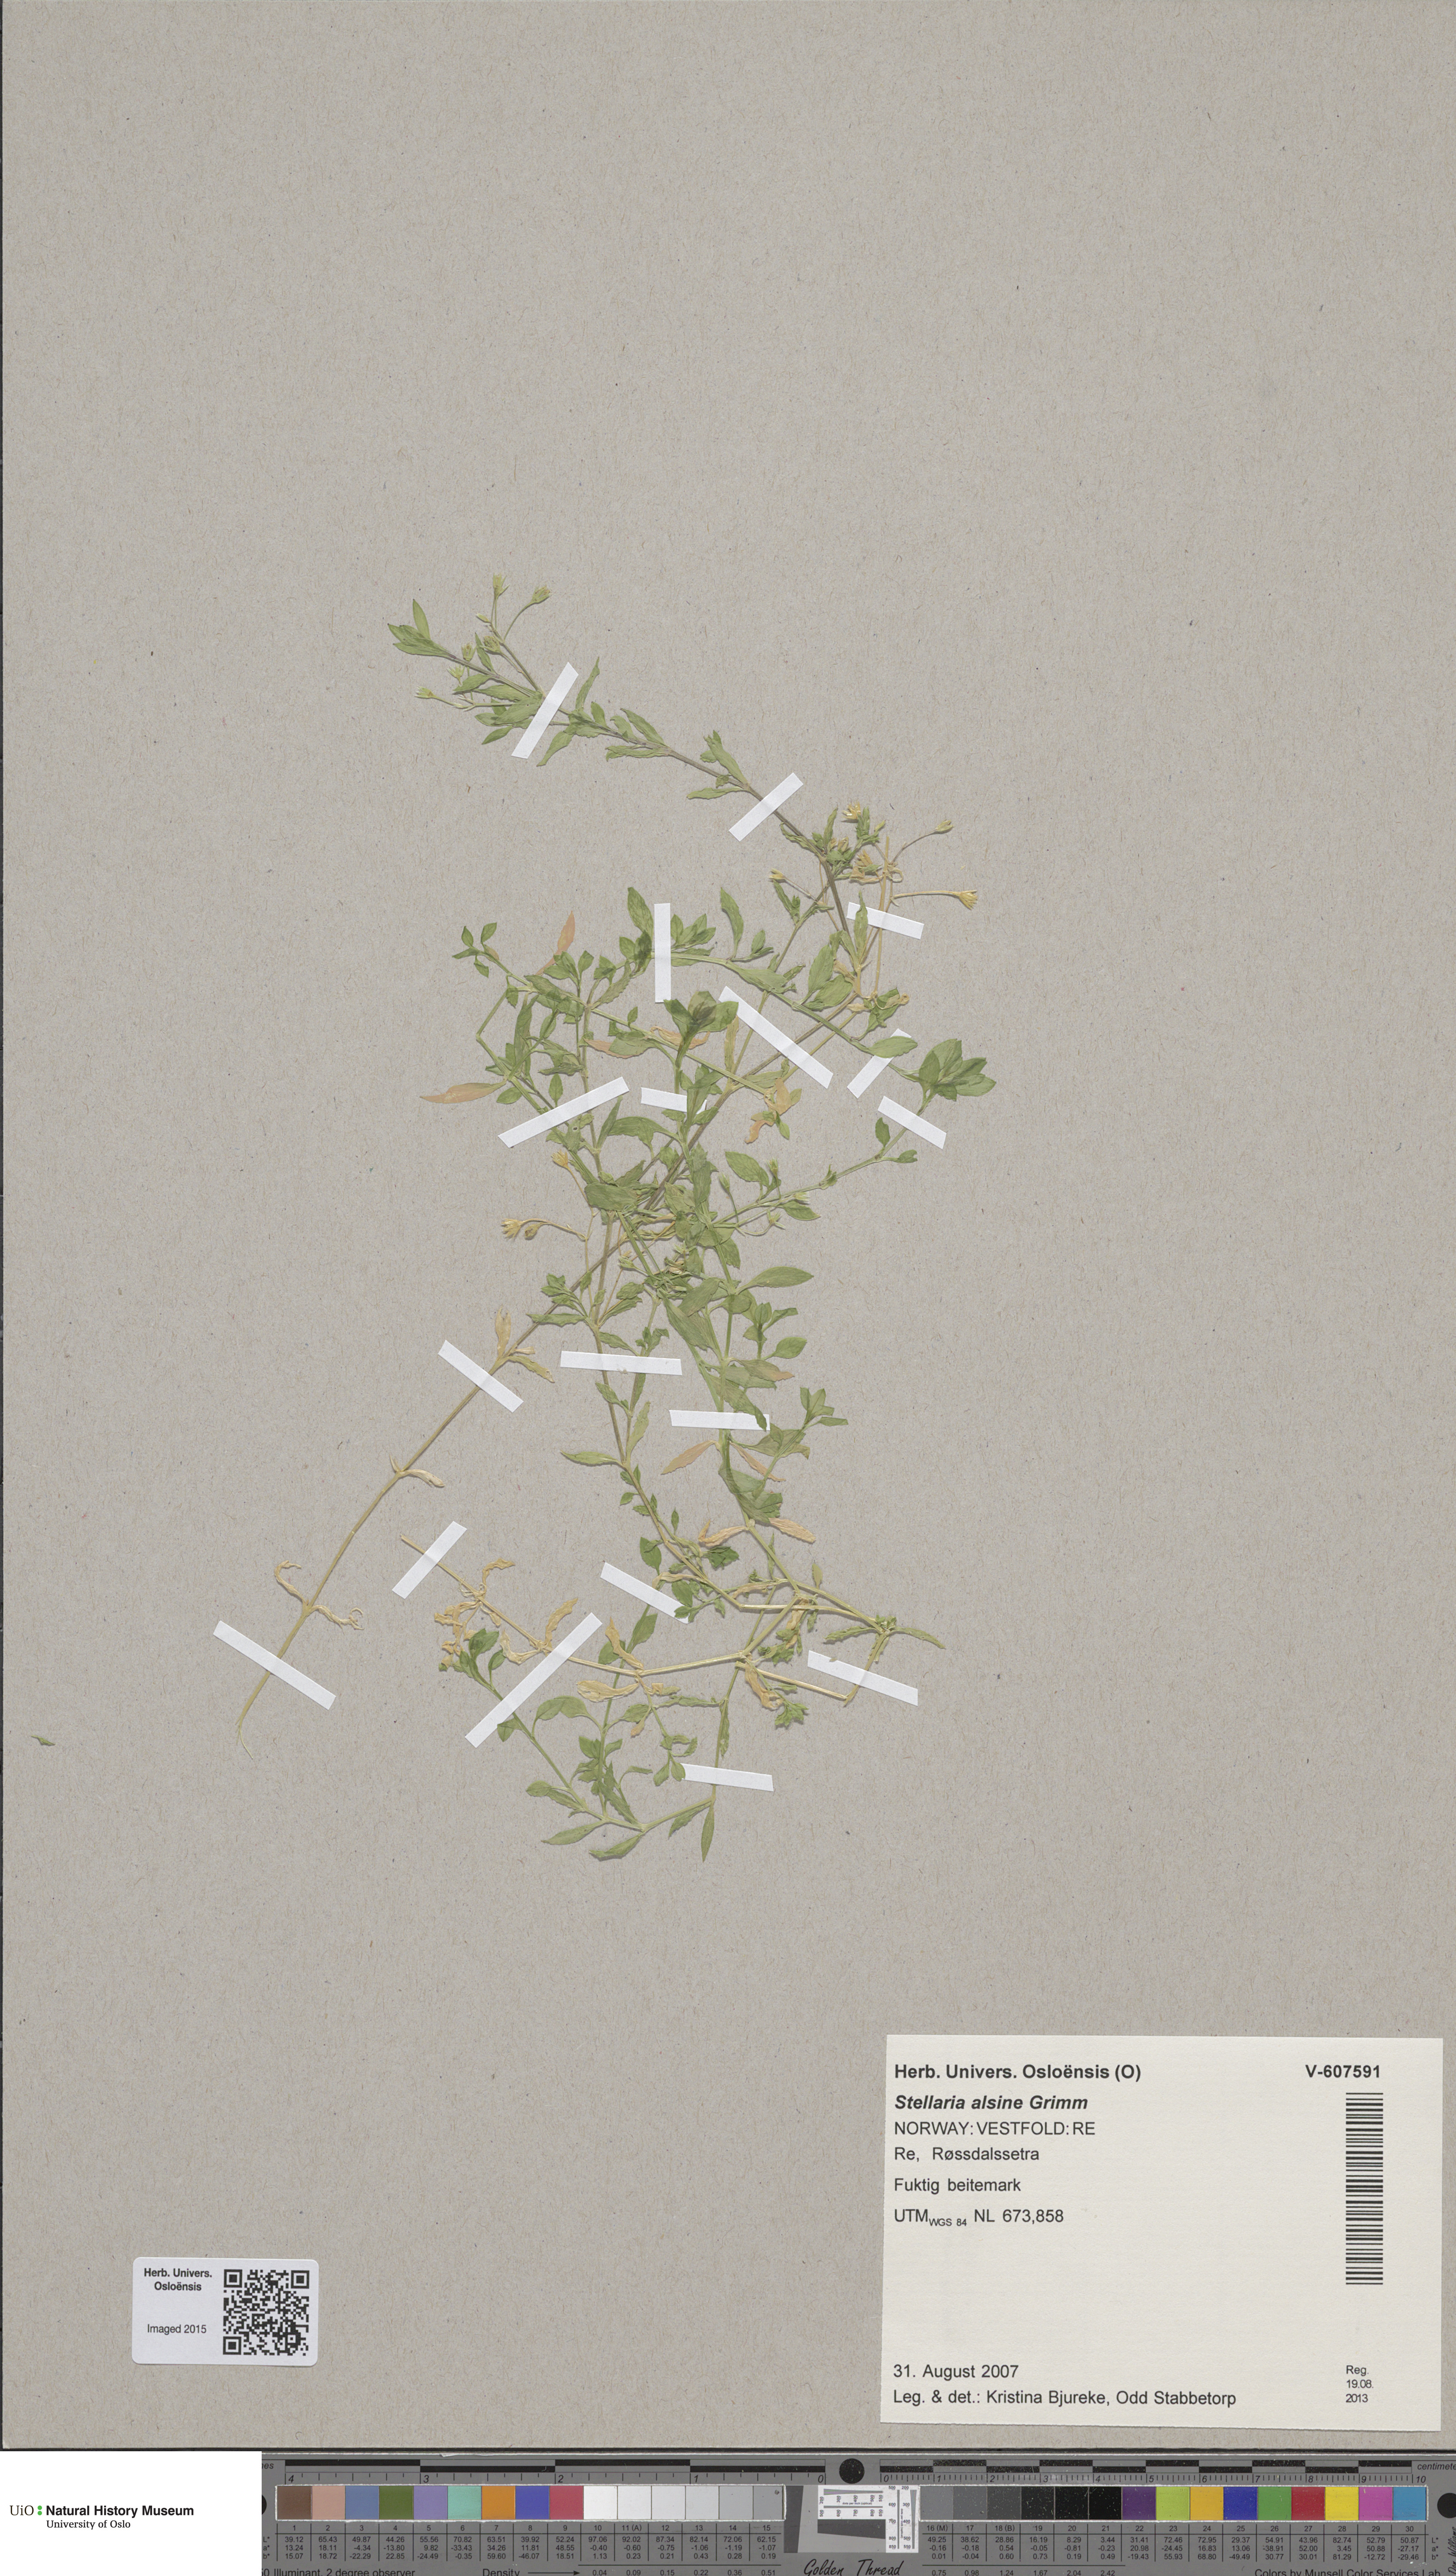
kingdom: Plantae
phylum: Tracheophyta
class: Magnoliopsida
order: Caryophyllales
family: Caryophyllaceae
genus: Stellaria
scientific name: Stellaria alsine
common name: Bog stitchwort
